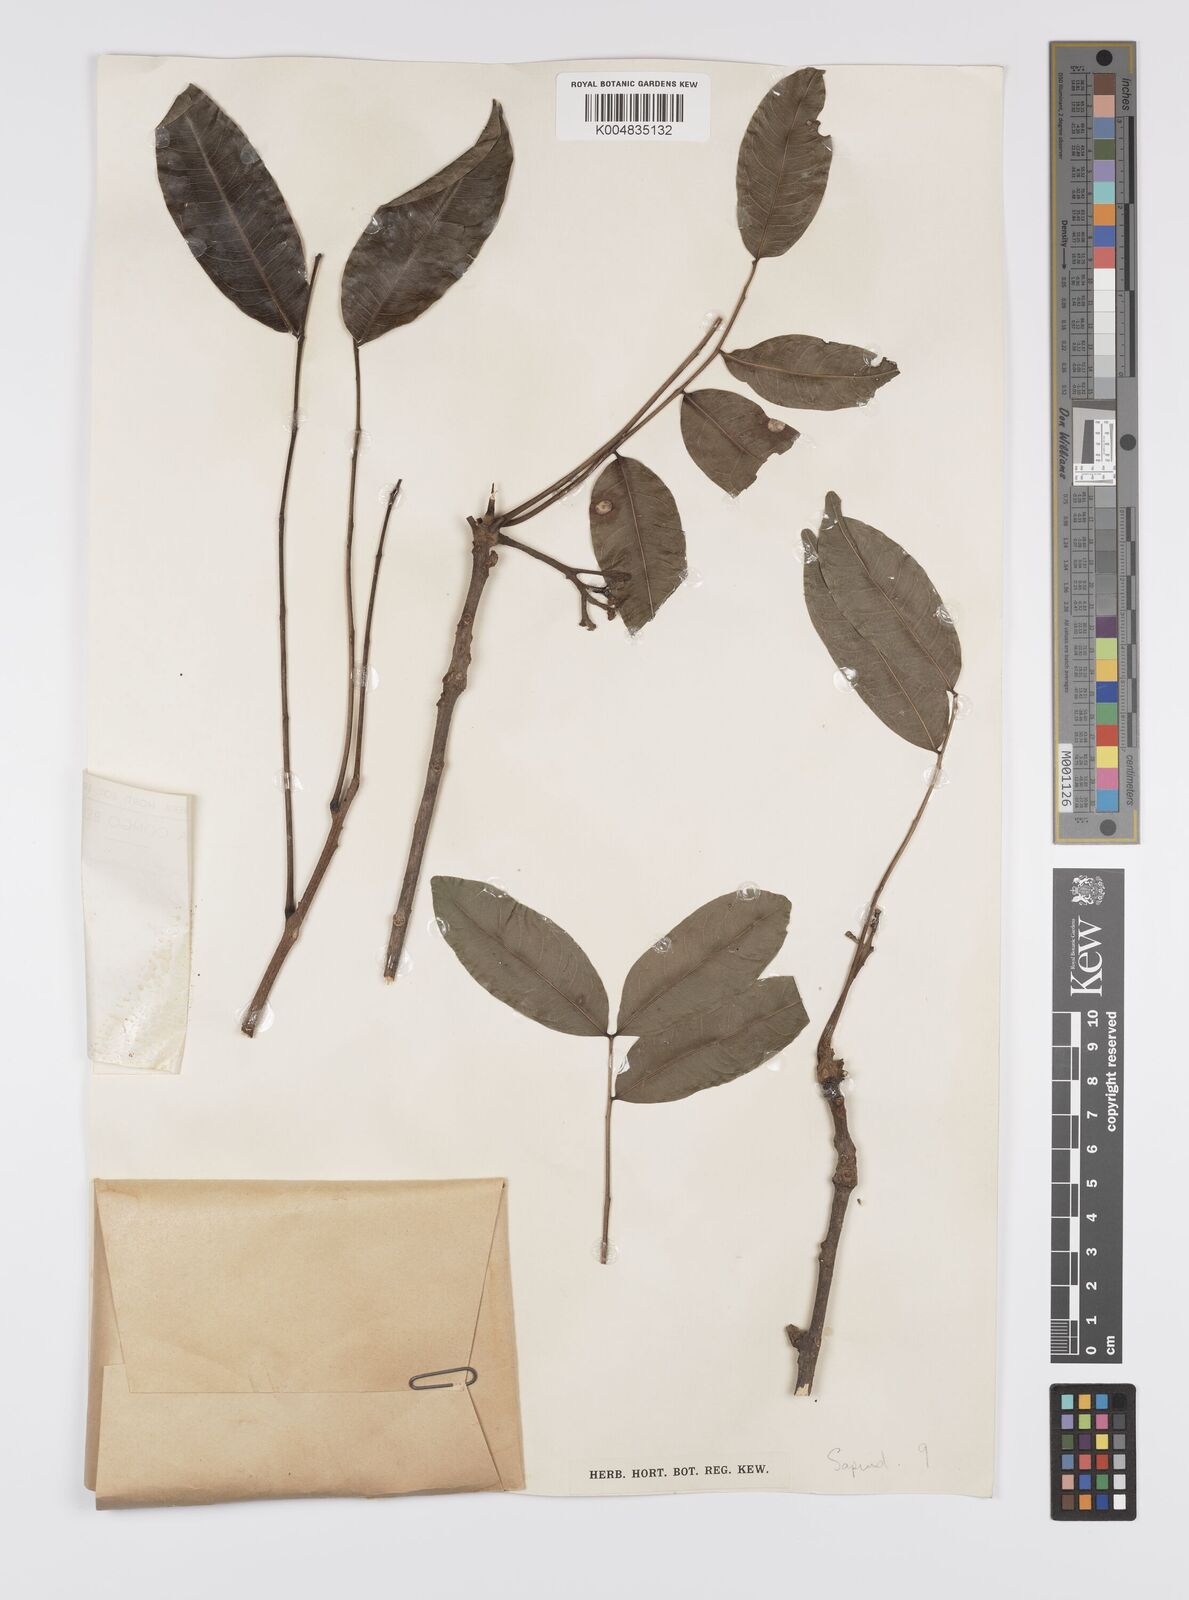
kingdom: Plantae
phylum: Tracheophyta
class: Magnoliopsida
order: Sapindales
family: Sapindaceae
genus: Zanha
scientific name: Zanha golungensis
